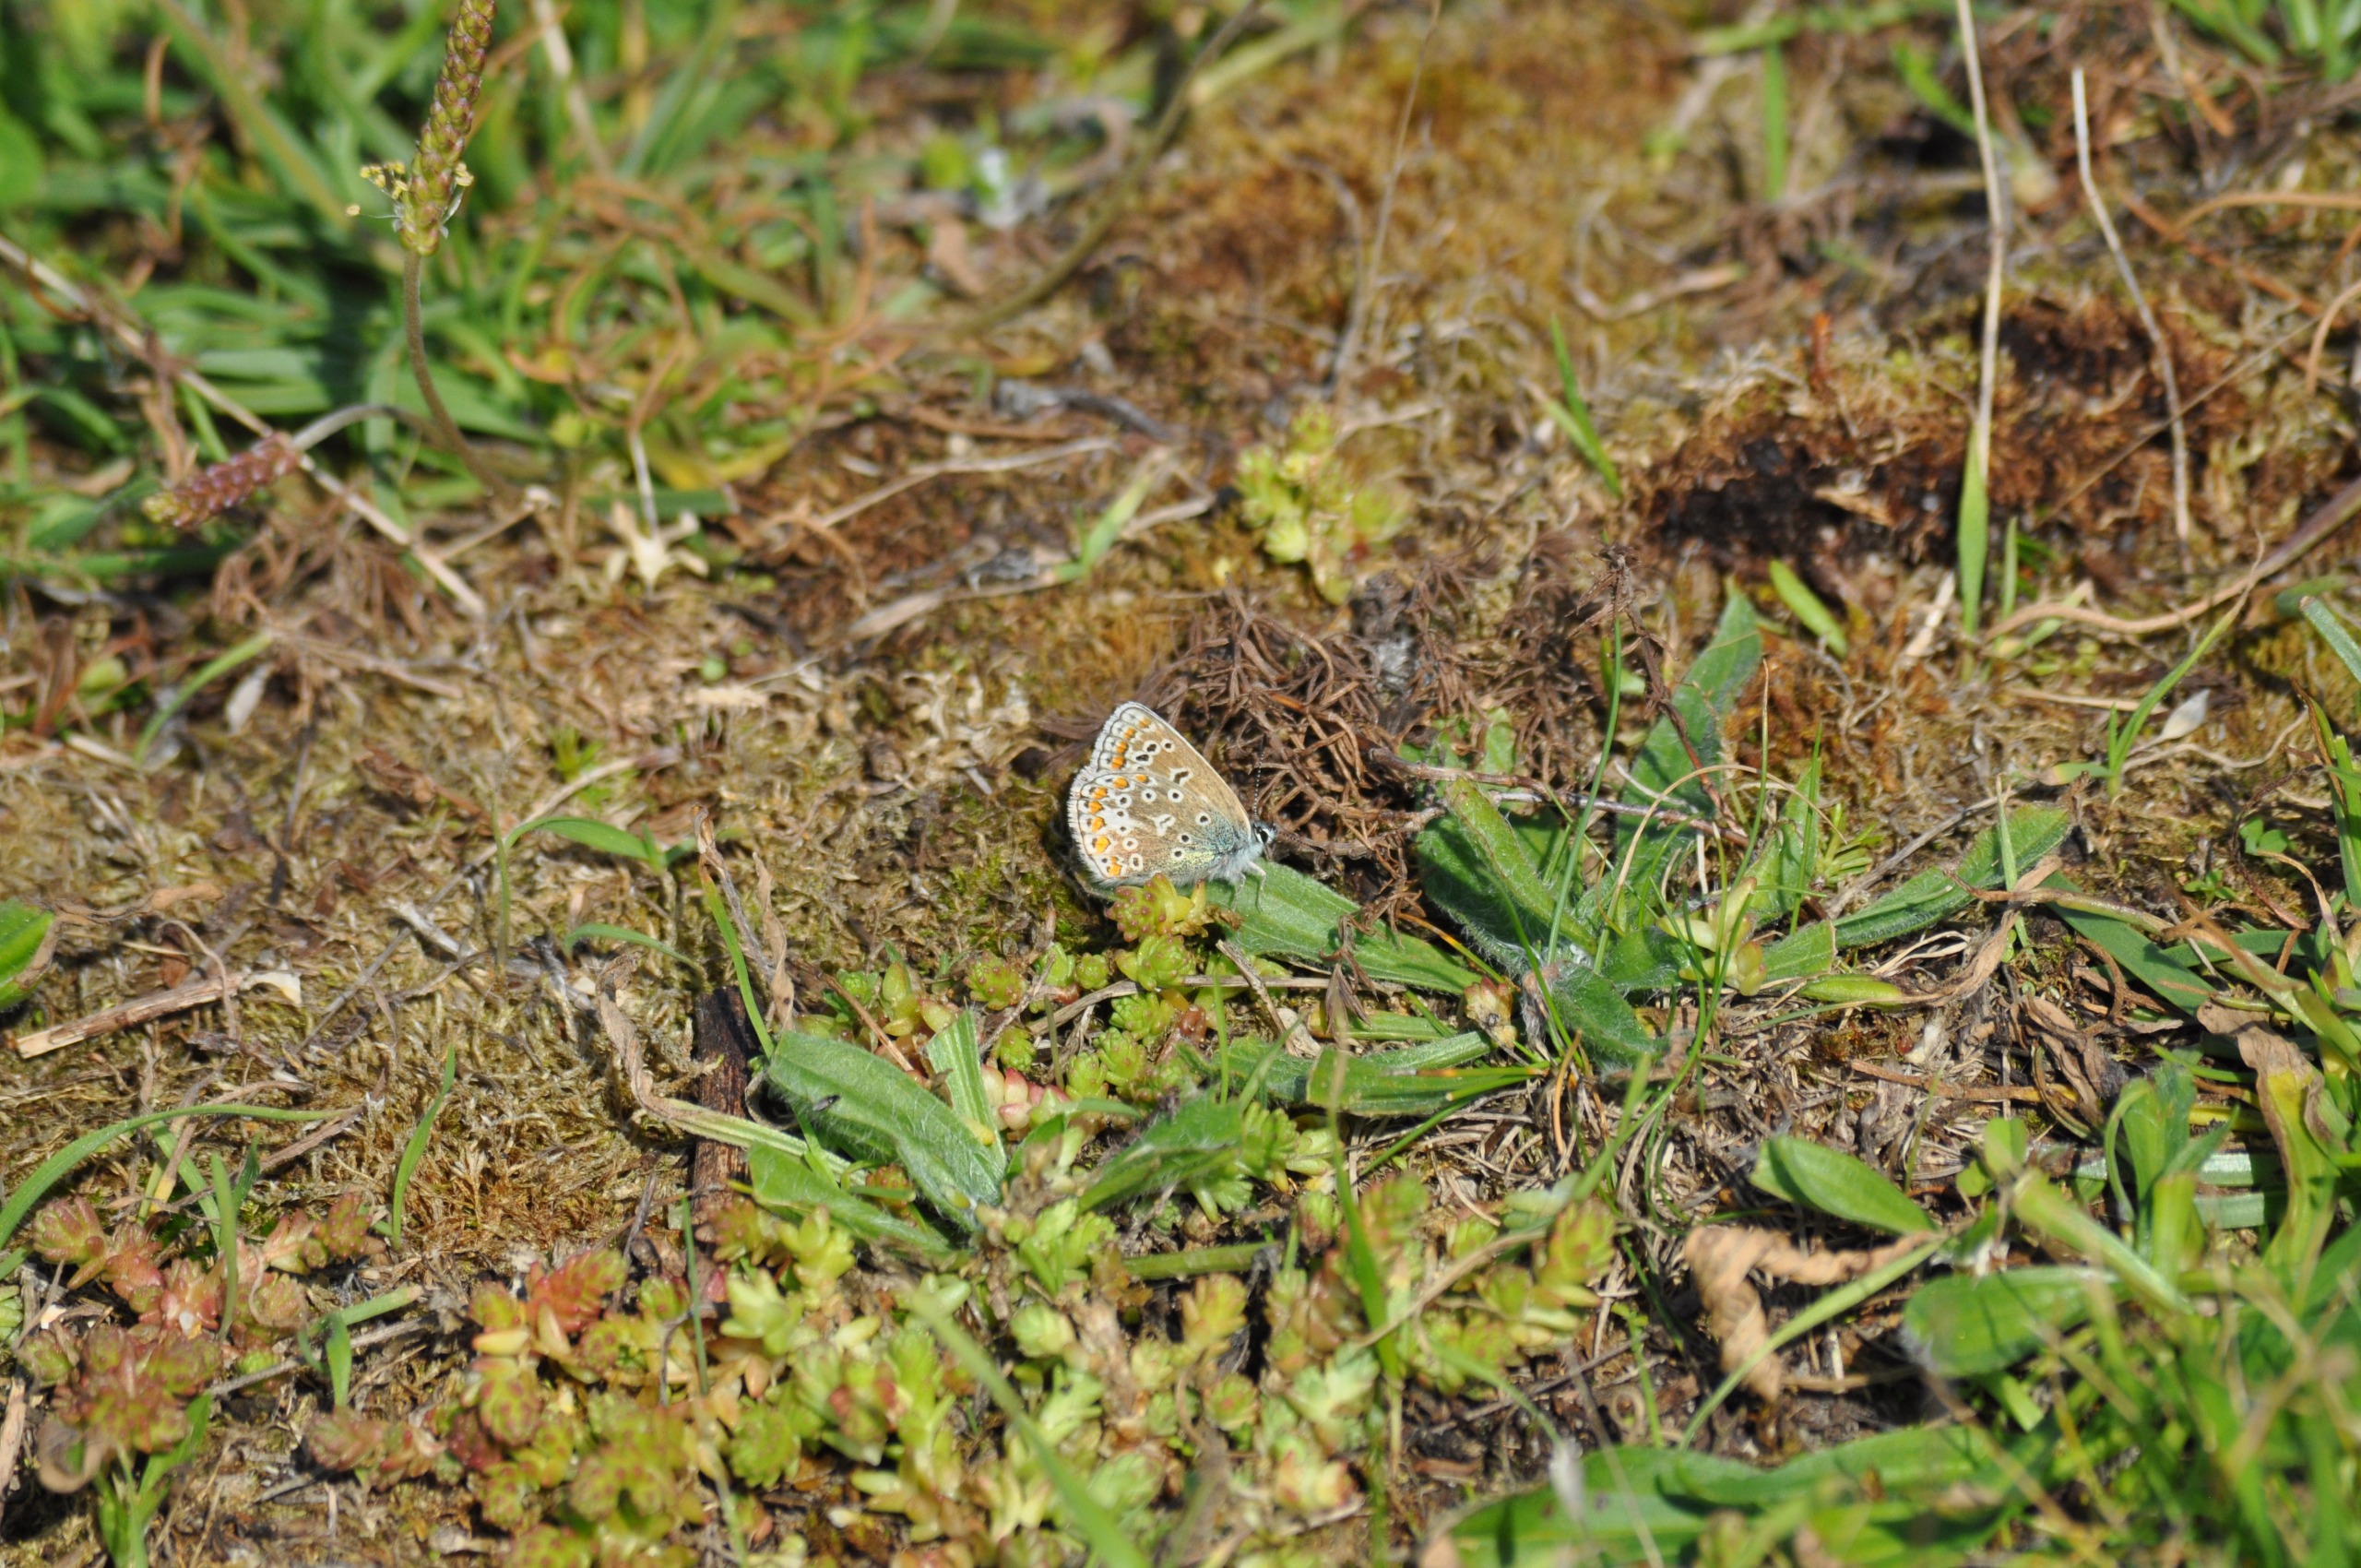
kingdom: Animalia
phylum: Arthropoda
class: Insecta
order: Lepidoptera
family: Lycaenidae
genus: Polyommatus
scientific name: Polyommatus icarus
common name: Almindelig blåfugl
